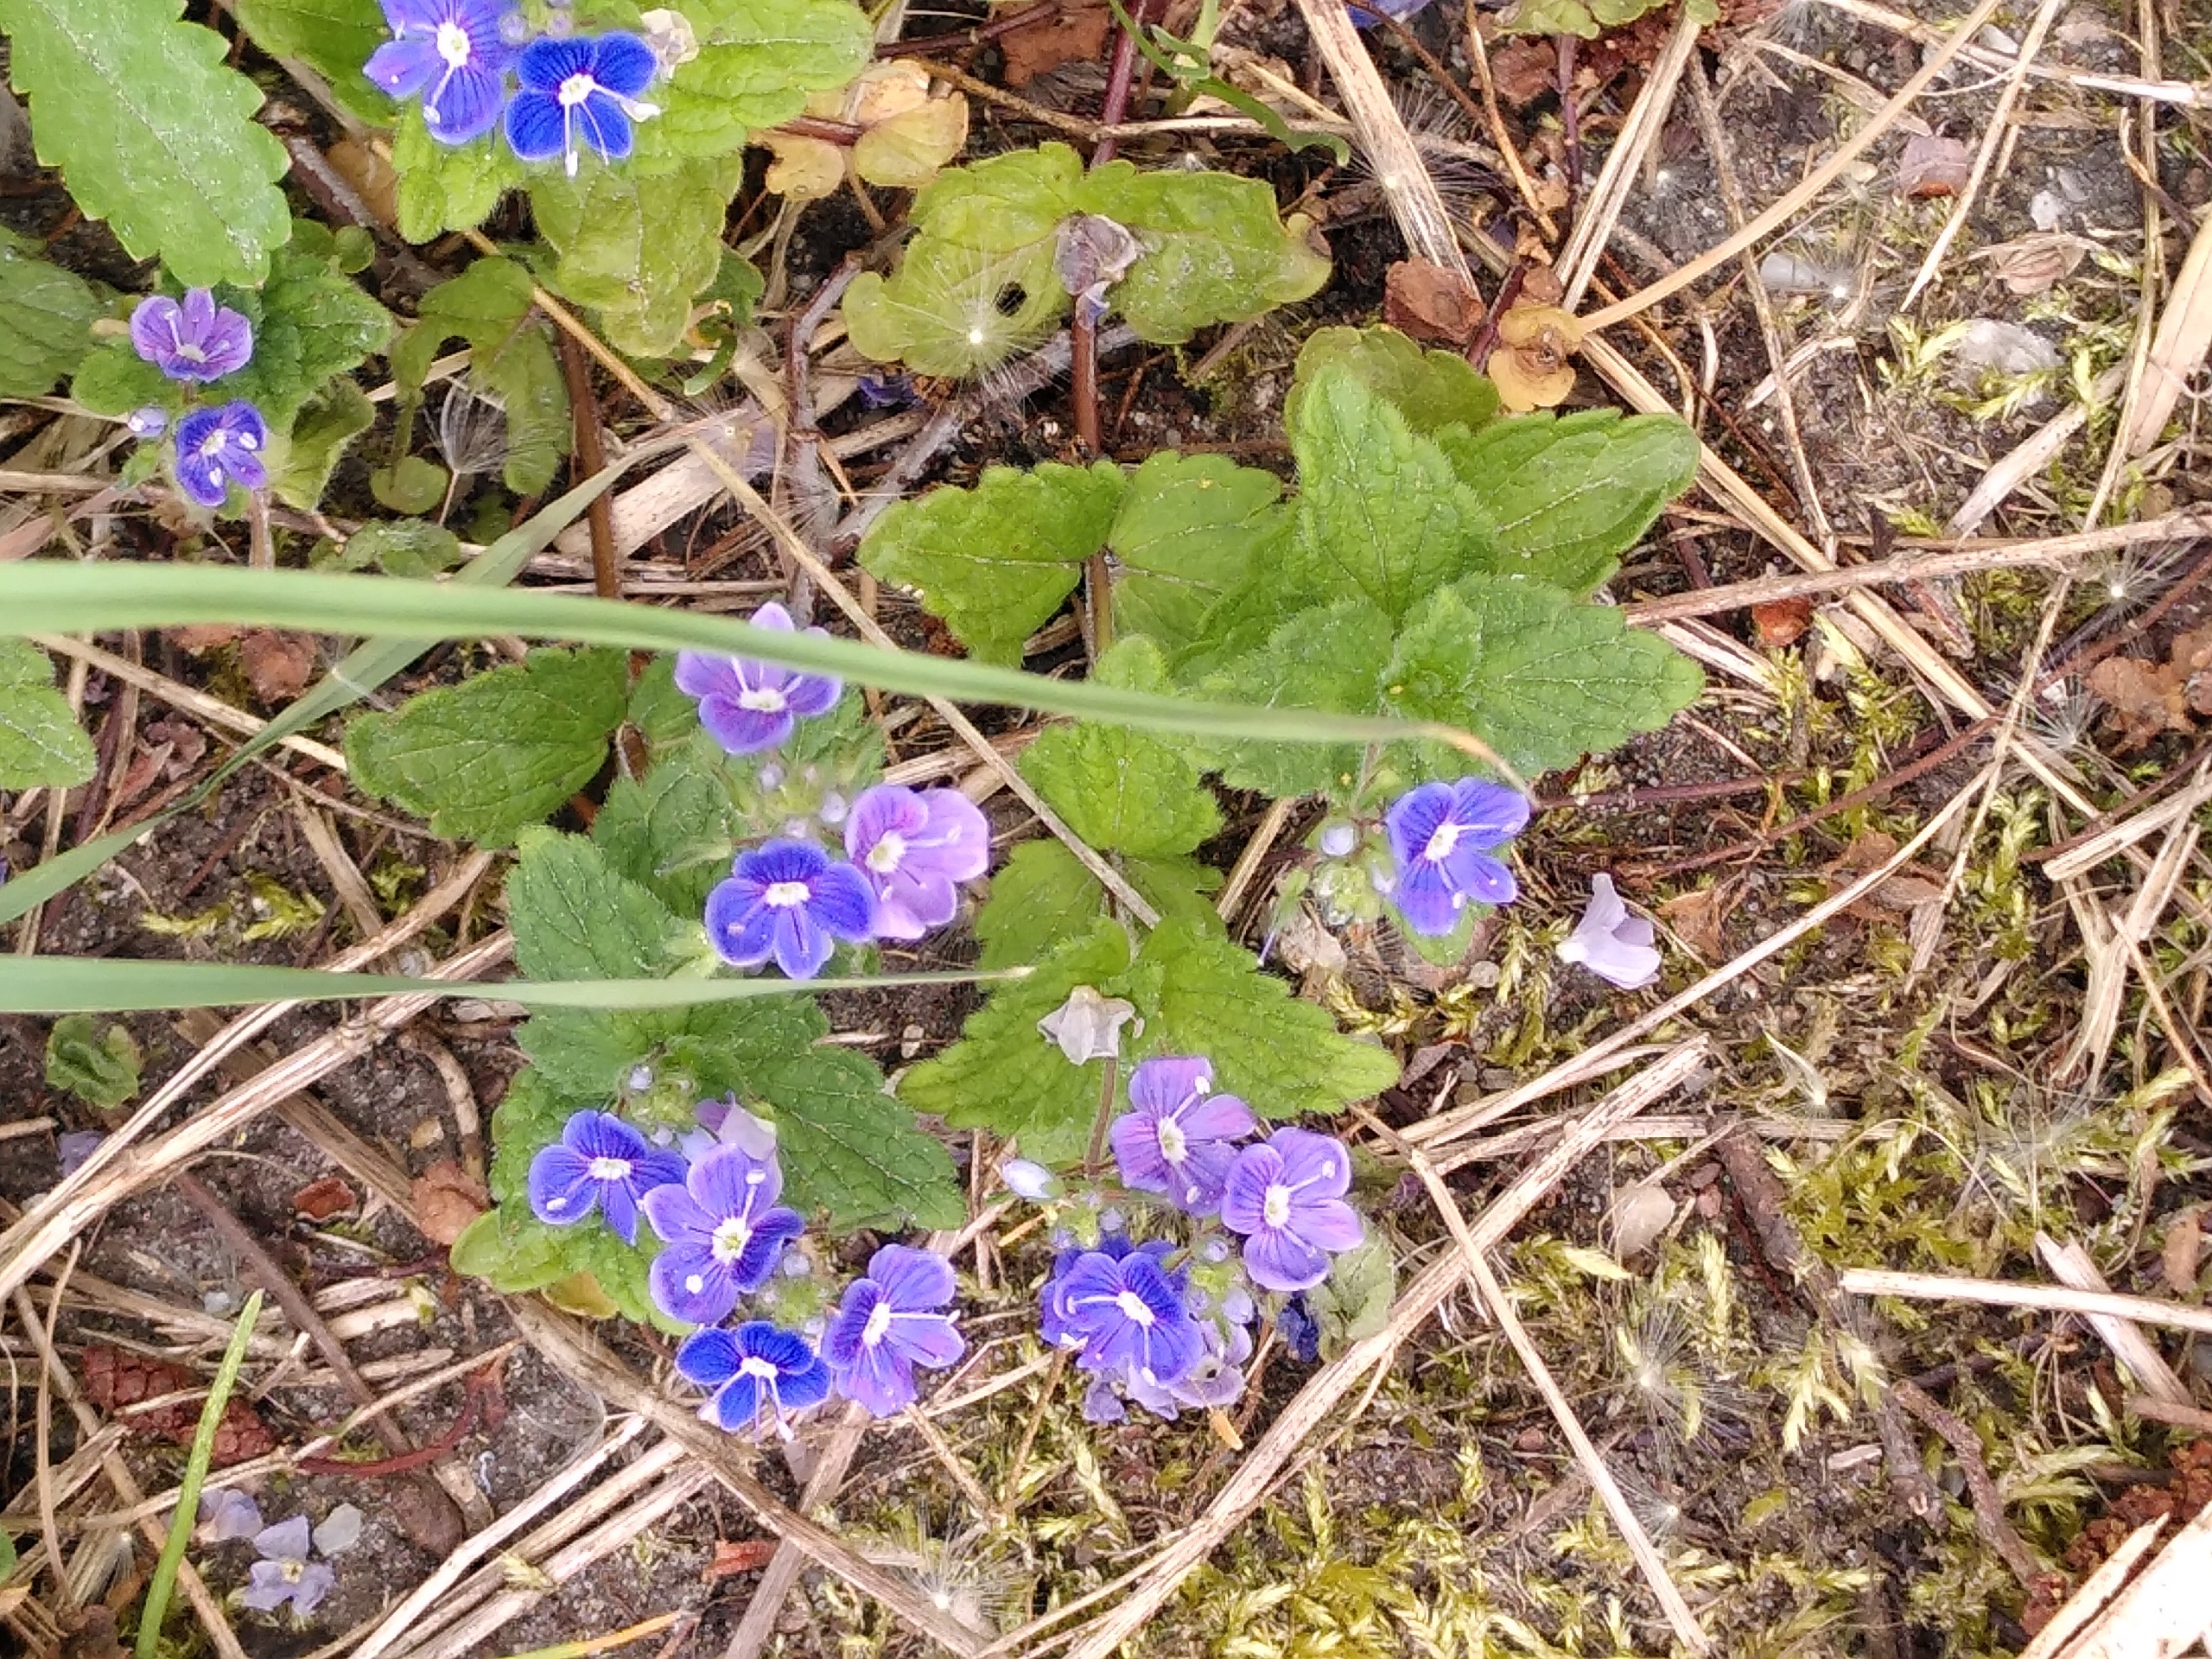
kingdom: Plantae
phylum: Tracheophyta
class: Magnoliopsida
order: Lamiales
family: Plantaginaceae
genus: Veronica
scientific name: Veronica chamaedrys
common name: Tveskægget ærenpris
